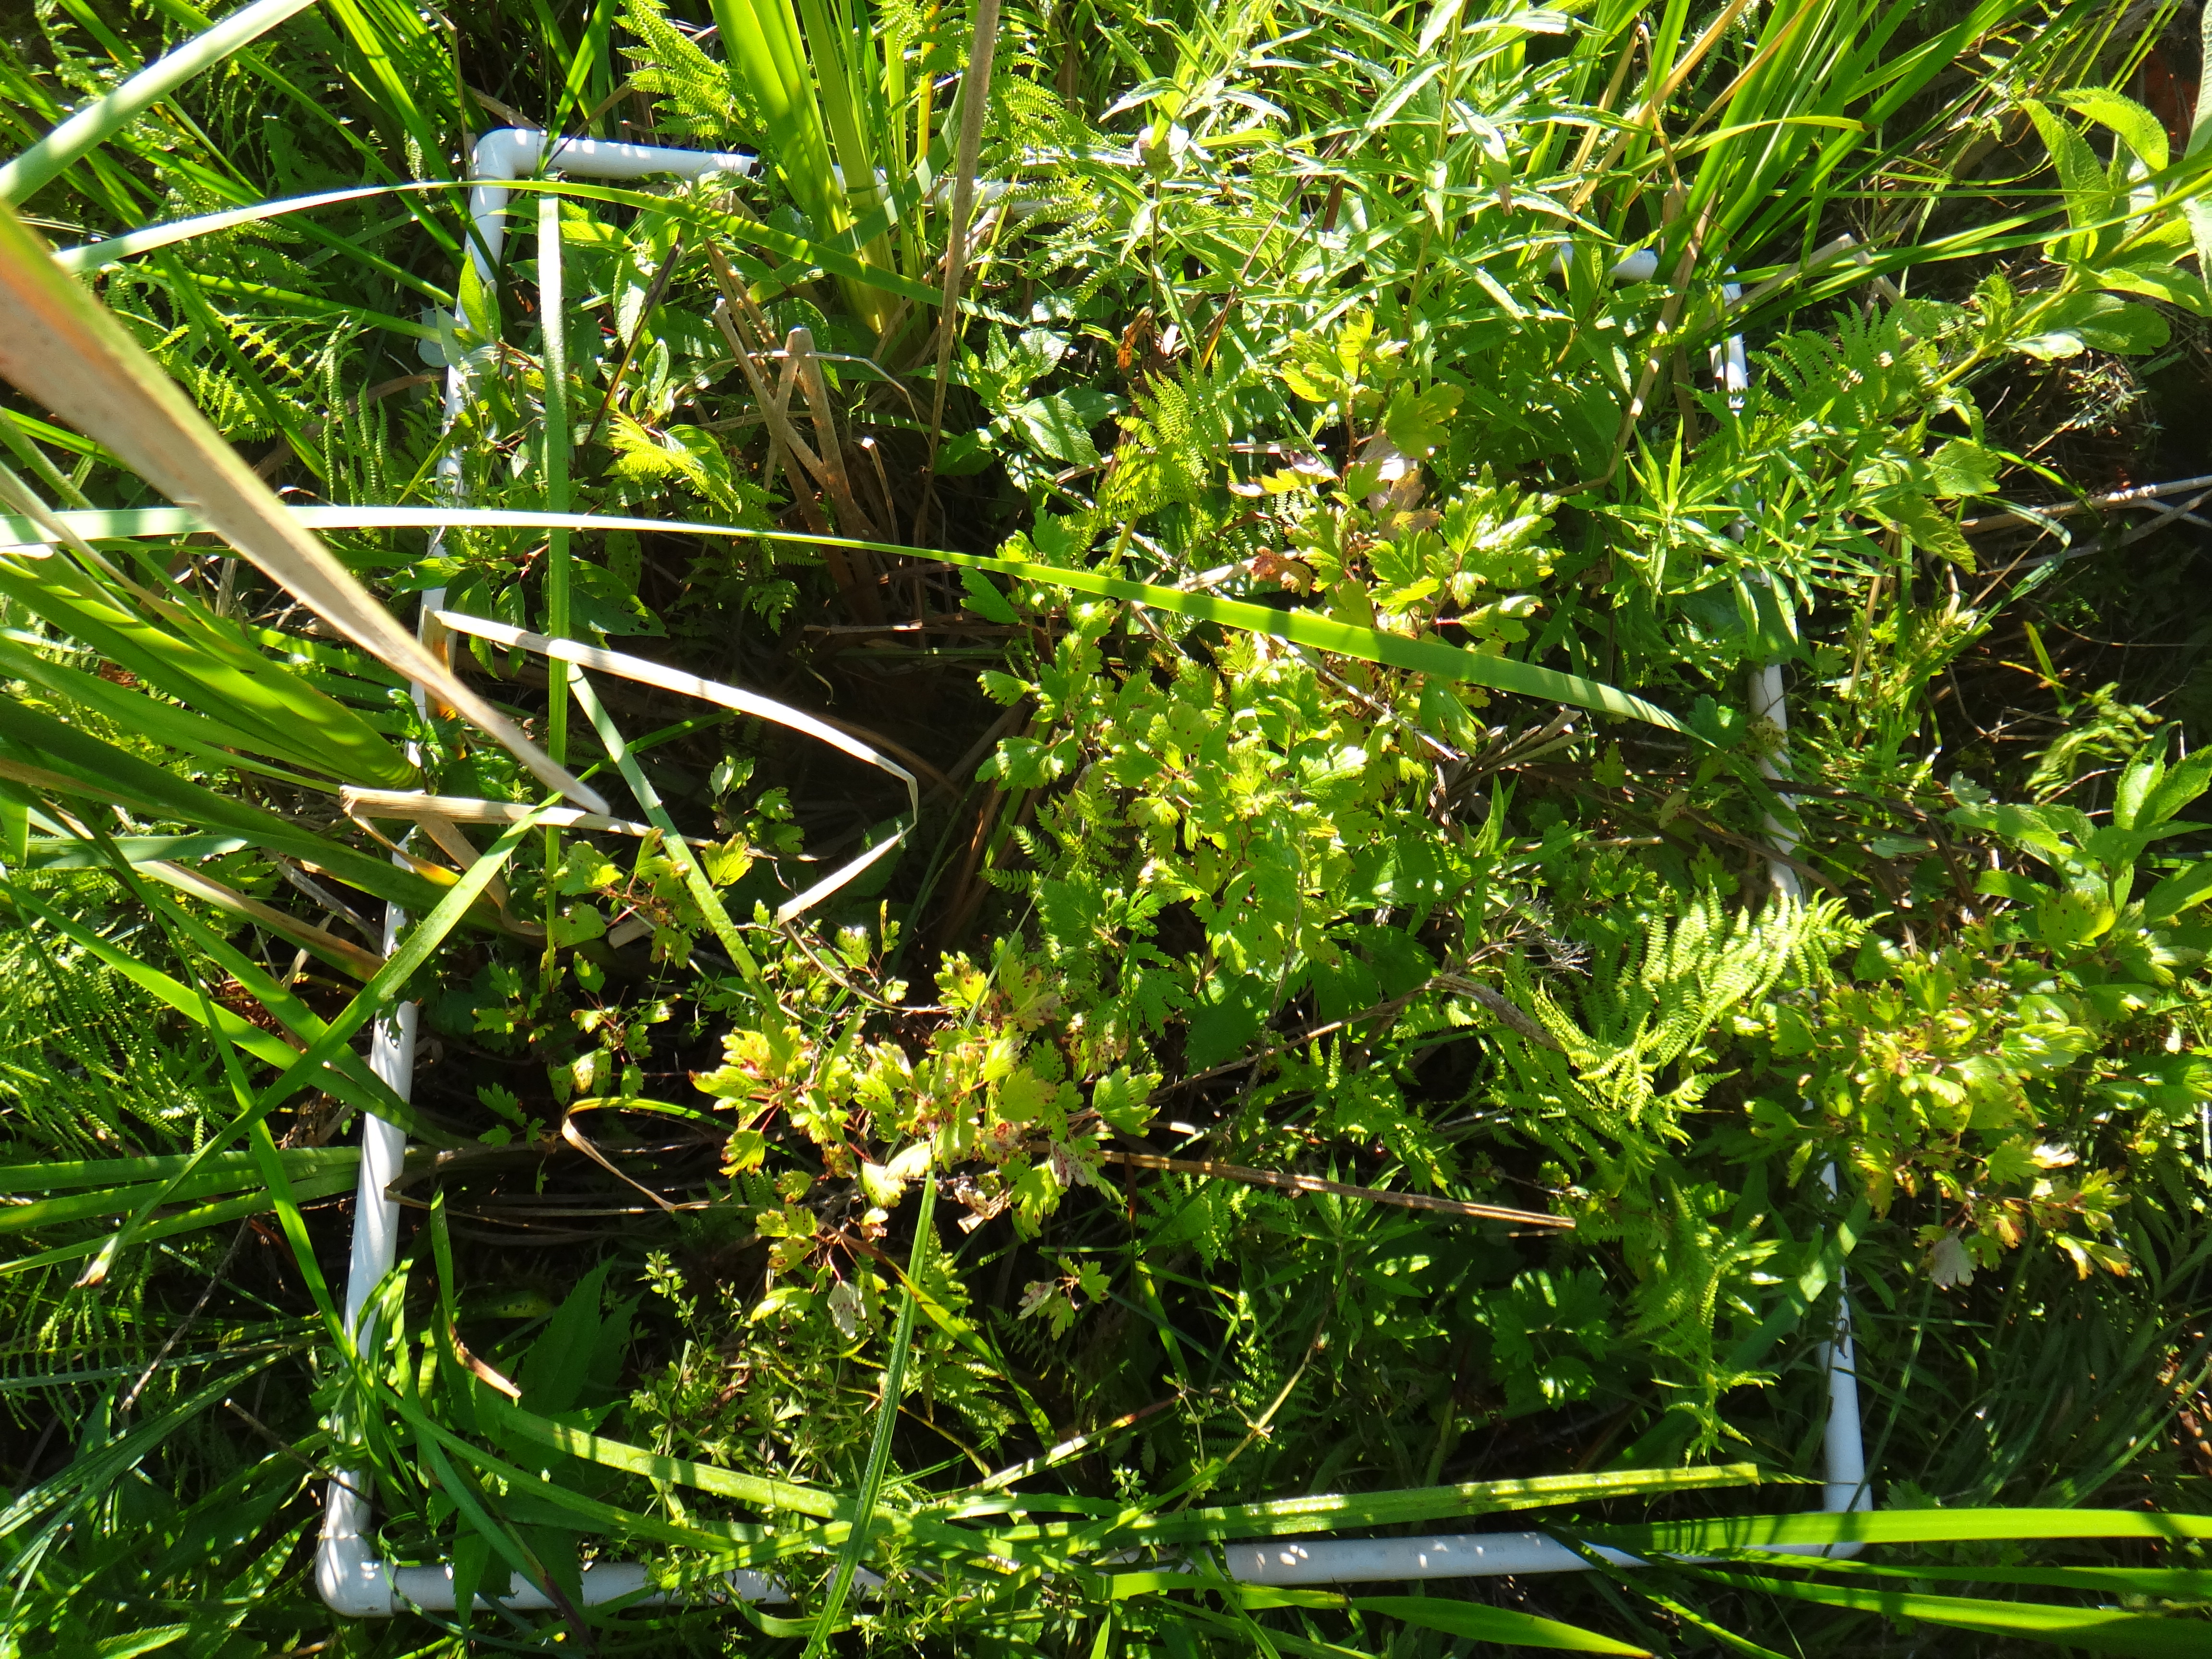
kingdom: Plantae
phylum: Tracheophyta
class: Liliopsida
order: Poales
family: Poaceae
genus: Muhlenbergia
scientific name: Muhlenbergia glomerata
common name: Bog muhly
